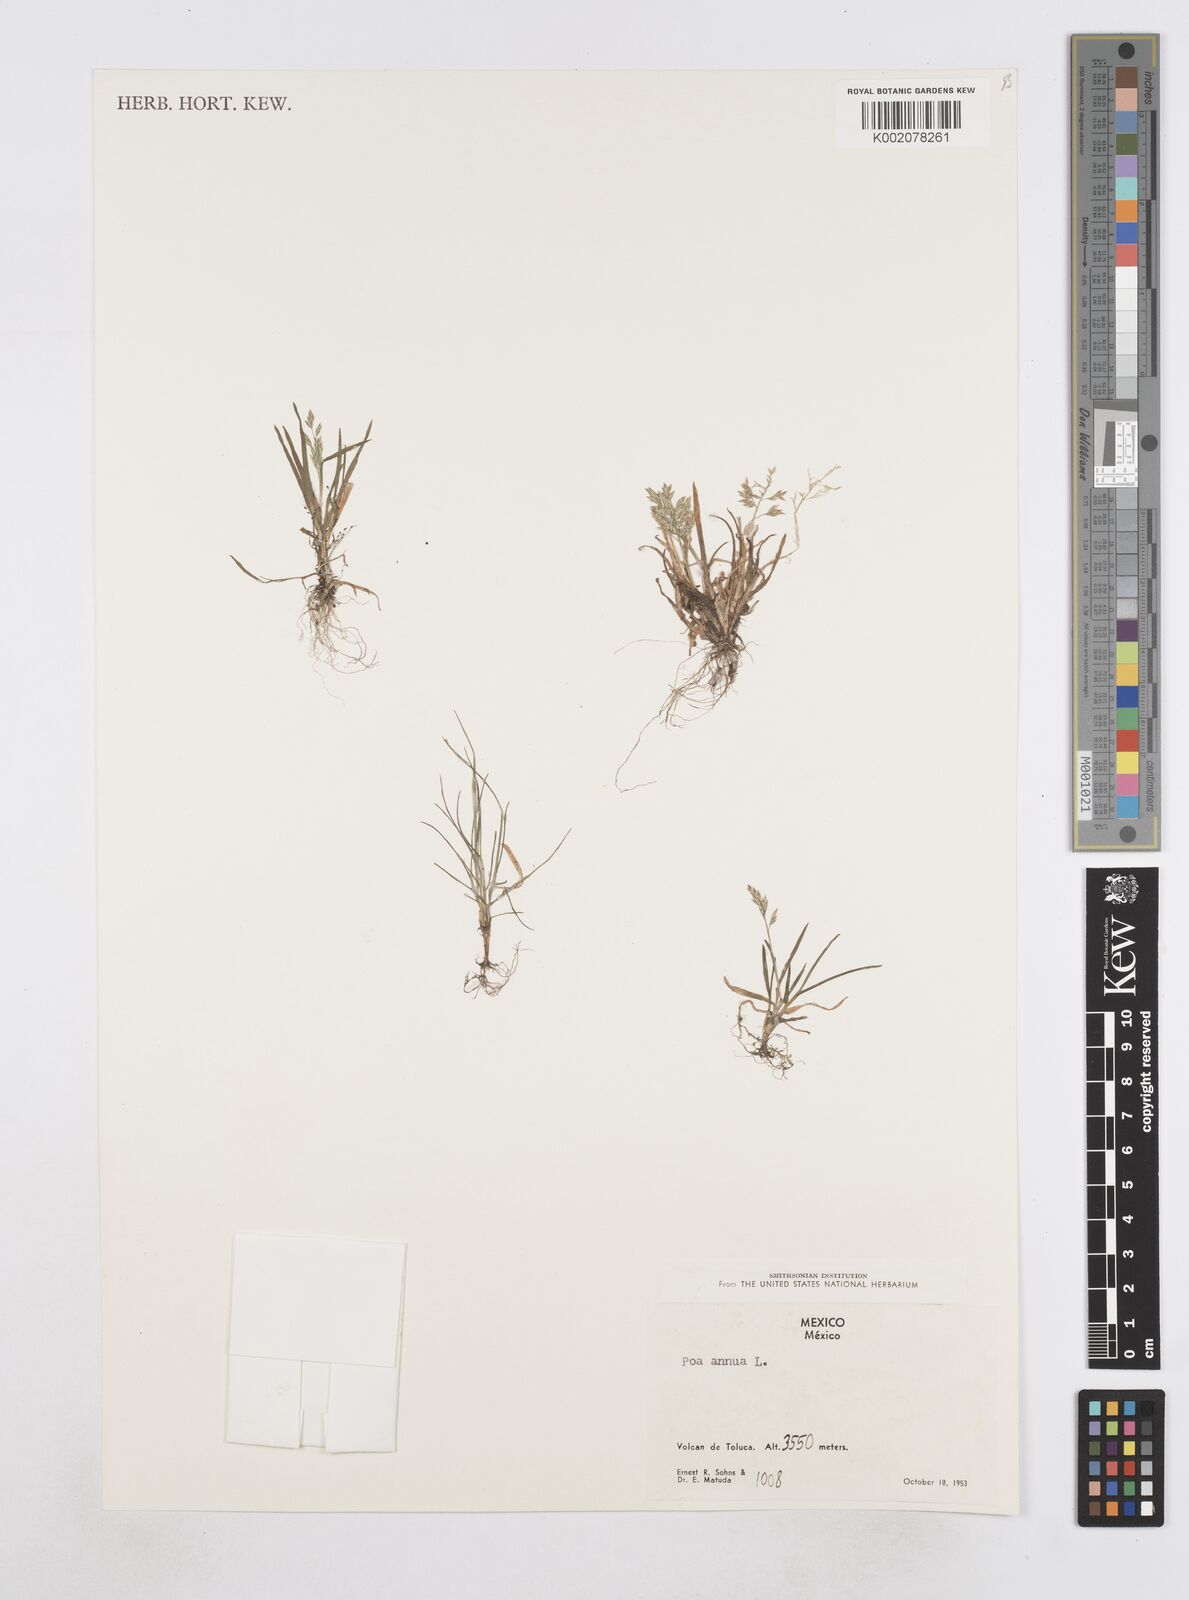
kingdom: Plantae
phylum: Tracheophyta
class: Liliopsida
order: Poales
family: Poaceae
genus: Poa
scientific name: Poa annua
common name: Annual bluegrass
